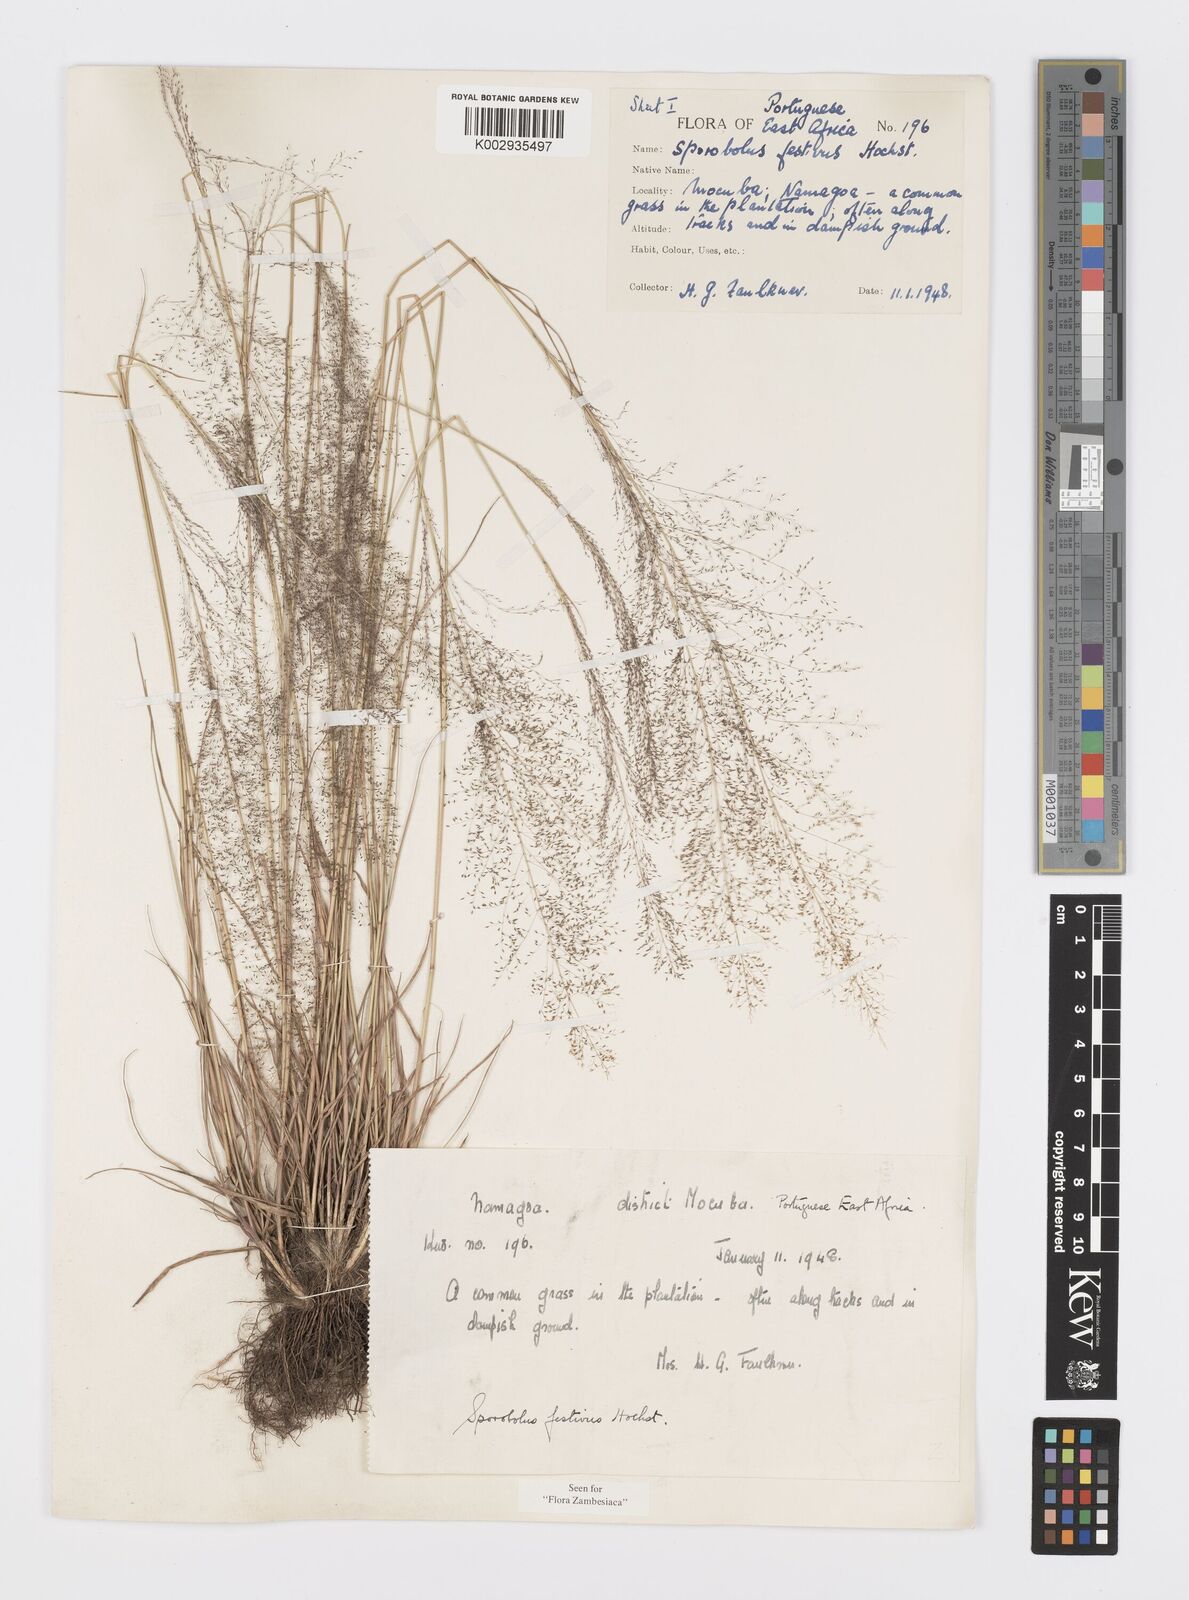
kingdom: Plantae
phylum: Tracheophyta
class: Liliopsida
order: Poales
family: Poaceae
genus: Sporobolus
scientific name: Sporobolus festivus
